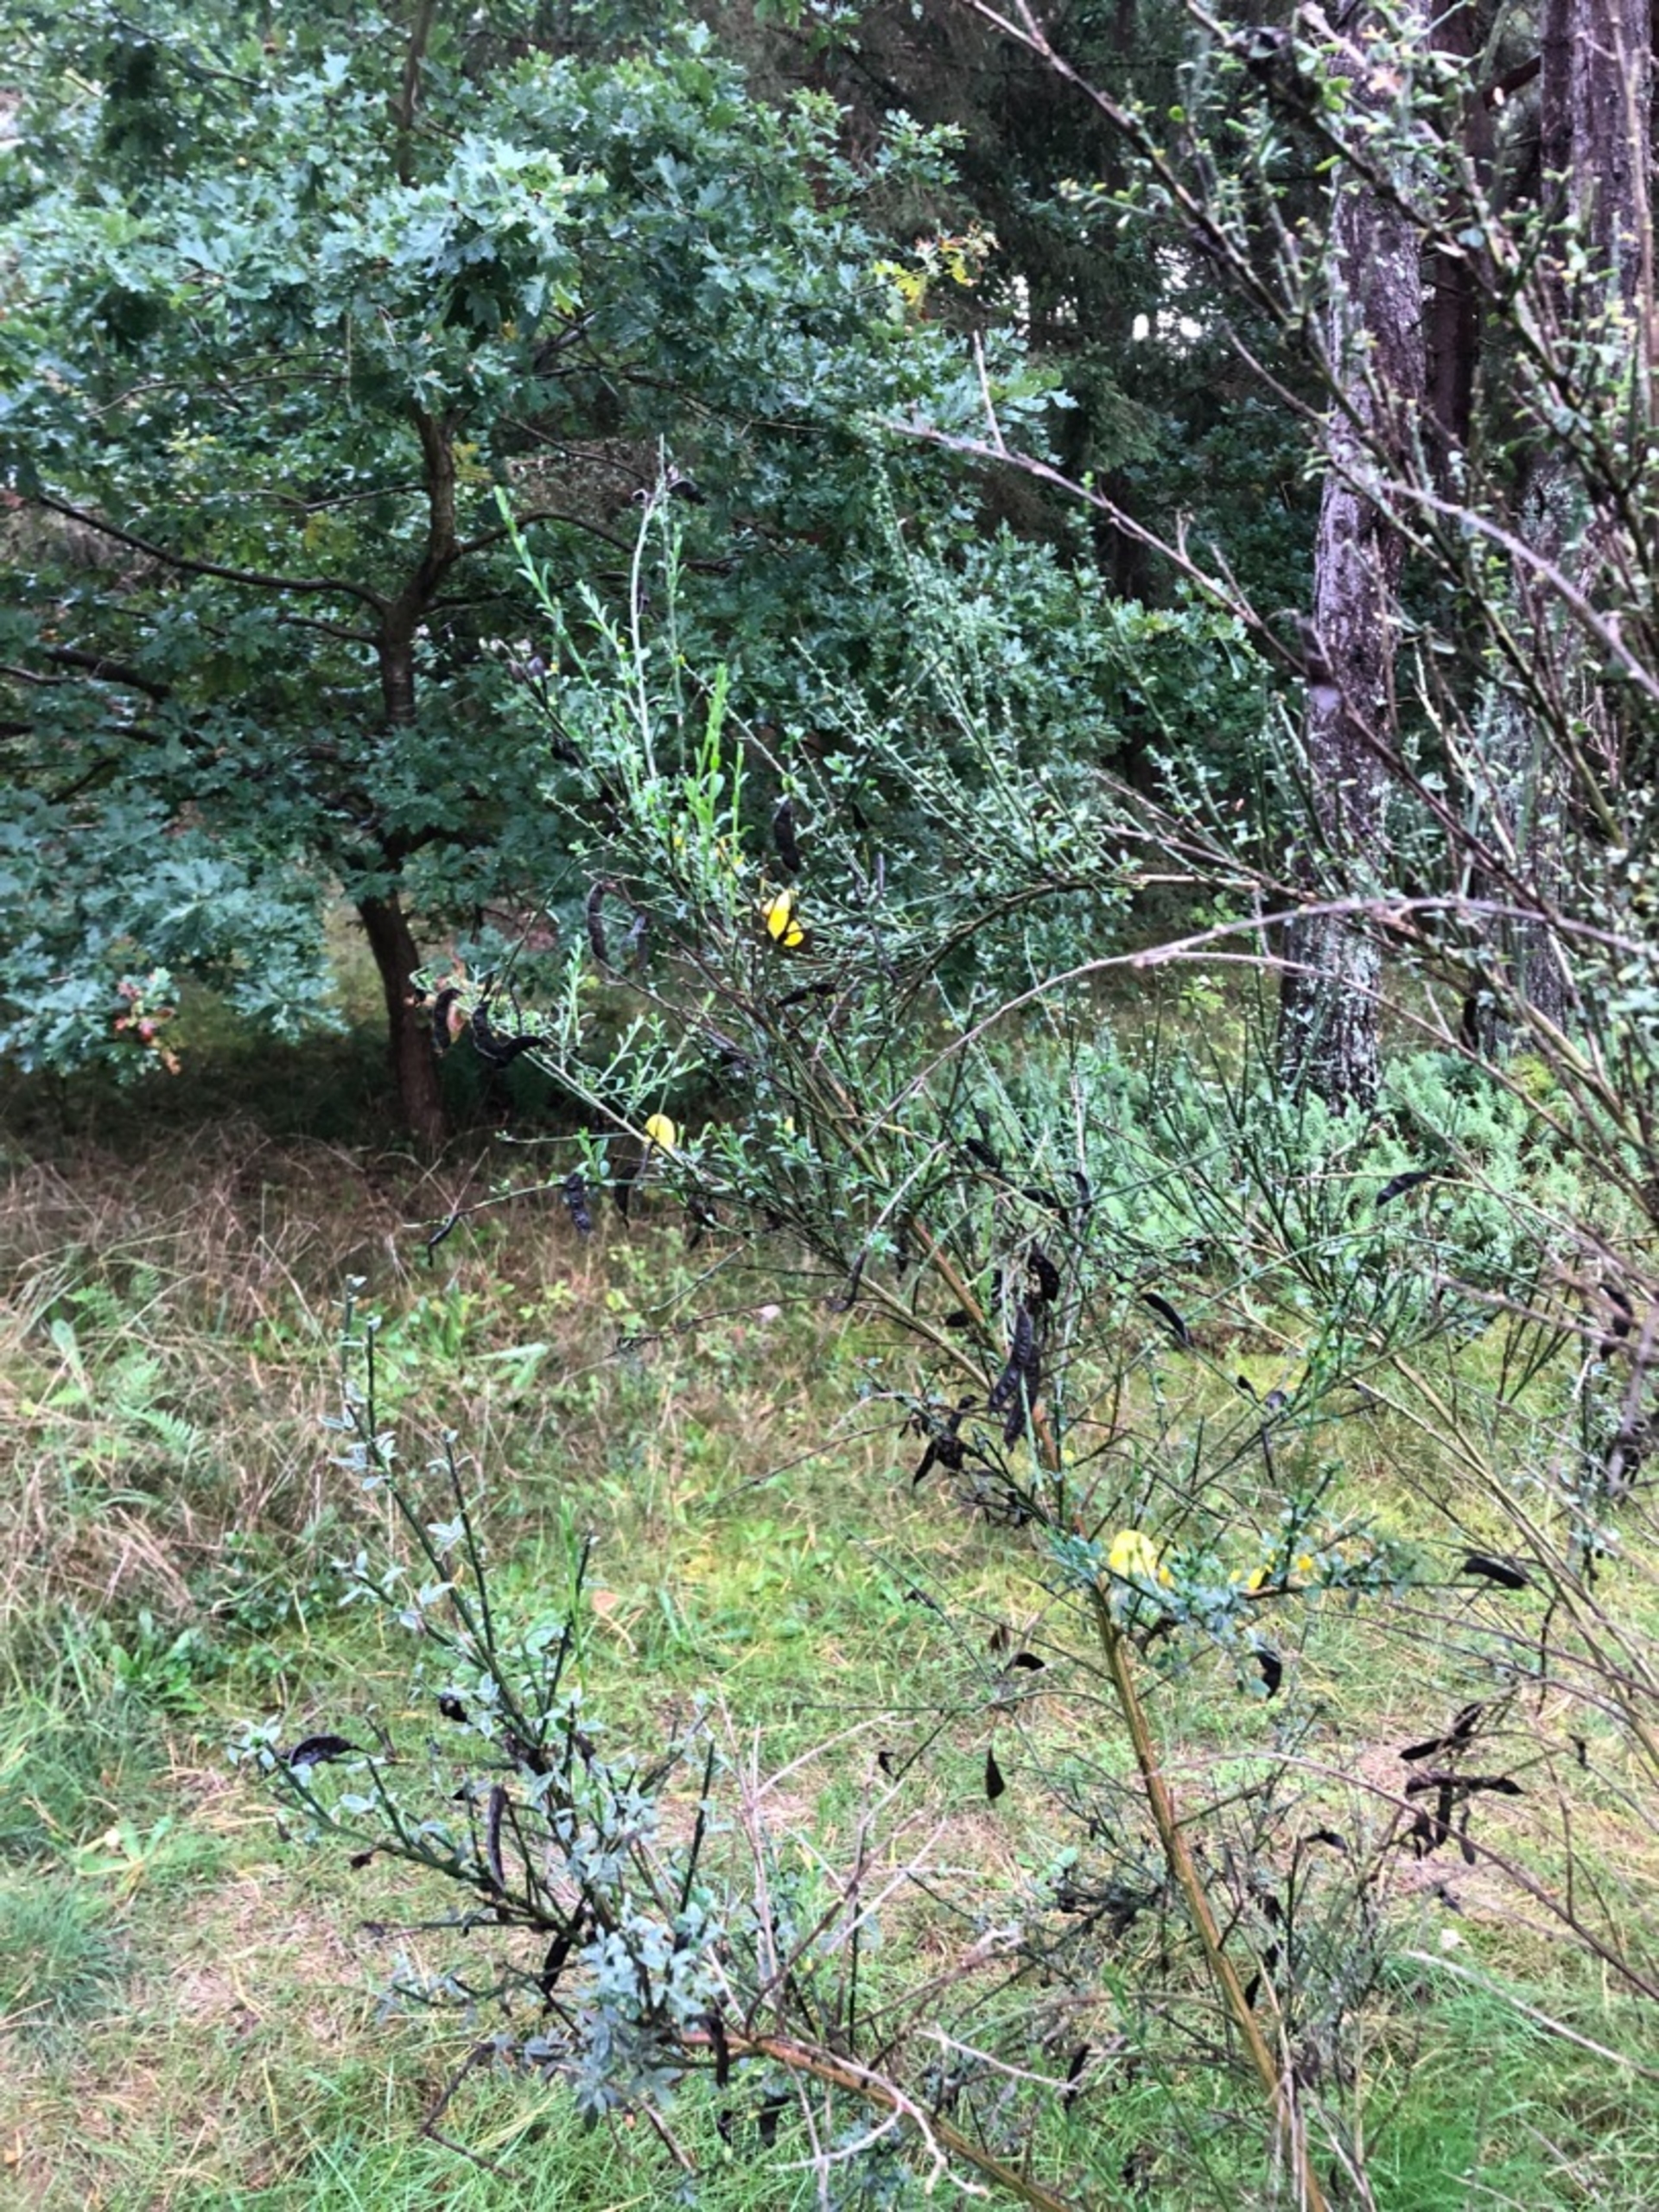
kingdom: Plantae
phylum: Tracheophyta
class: Magnoliopsida
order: Fabales
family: Fabaceae
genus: Cytisus
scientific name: Cytisus scoparius
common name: Almindelig gyvel
